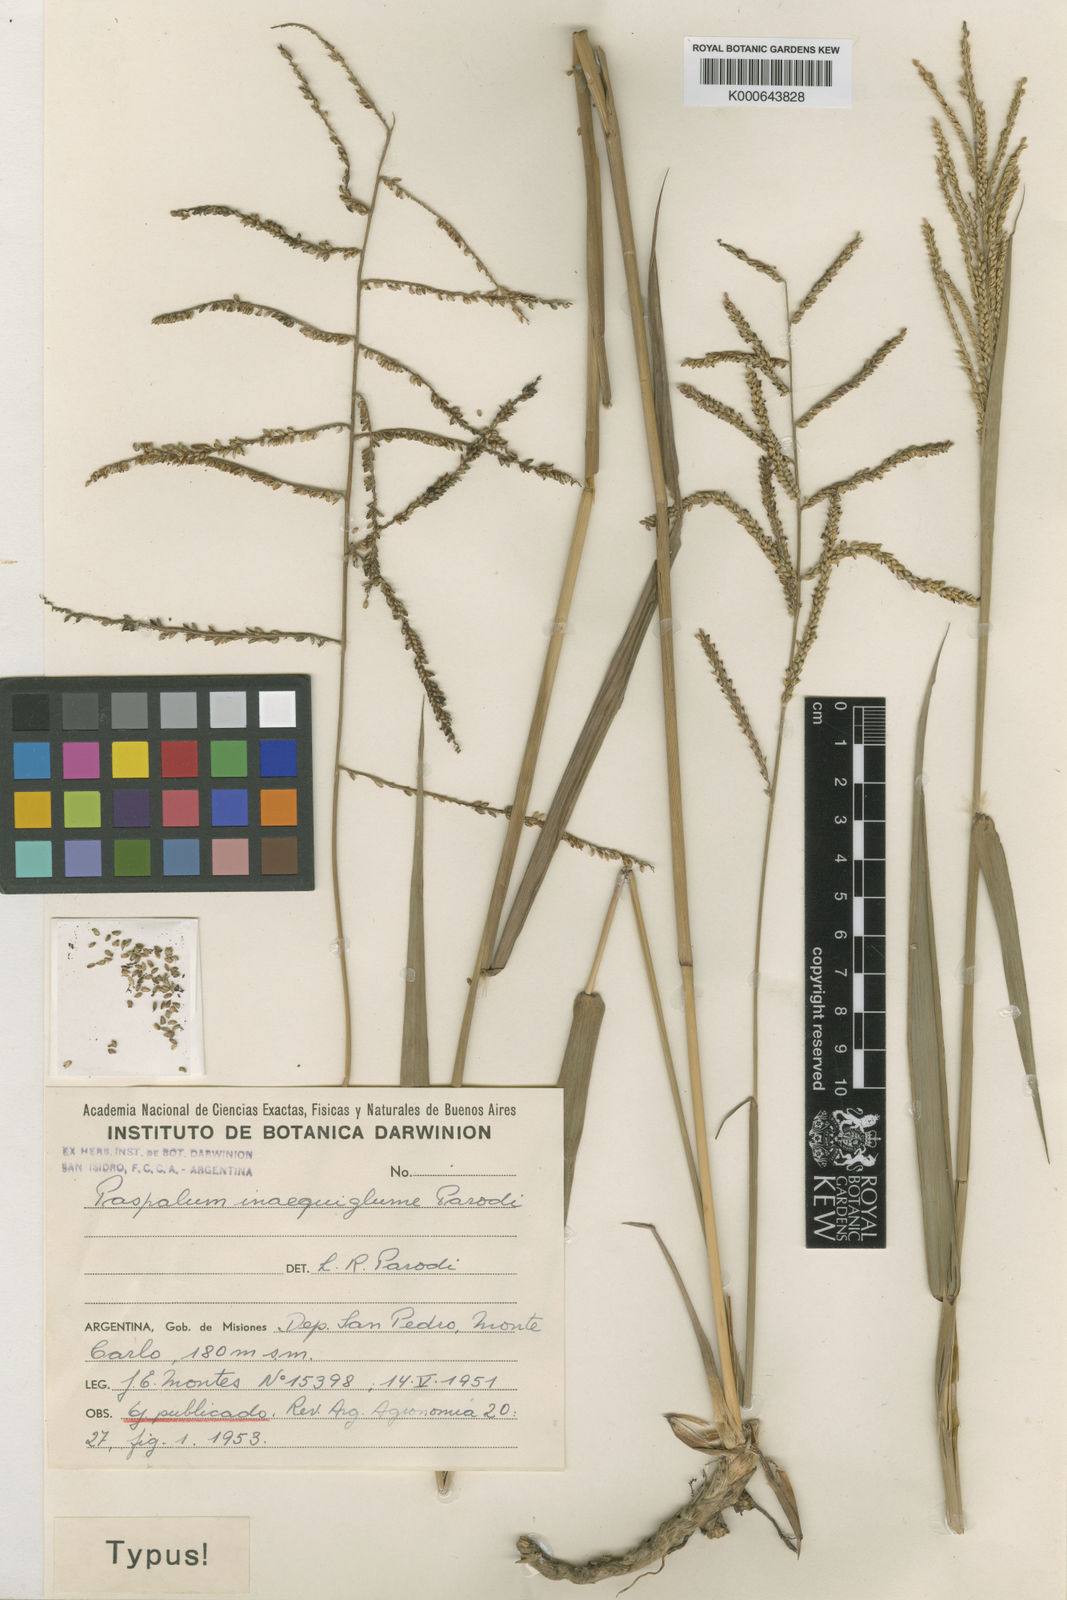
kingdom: Plantae
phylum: Tracheophyta
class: Liliopsida
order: Poales
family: Poaceae
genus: Paspalum
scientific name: Paspalum usterii
